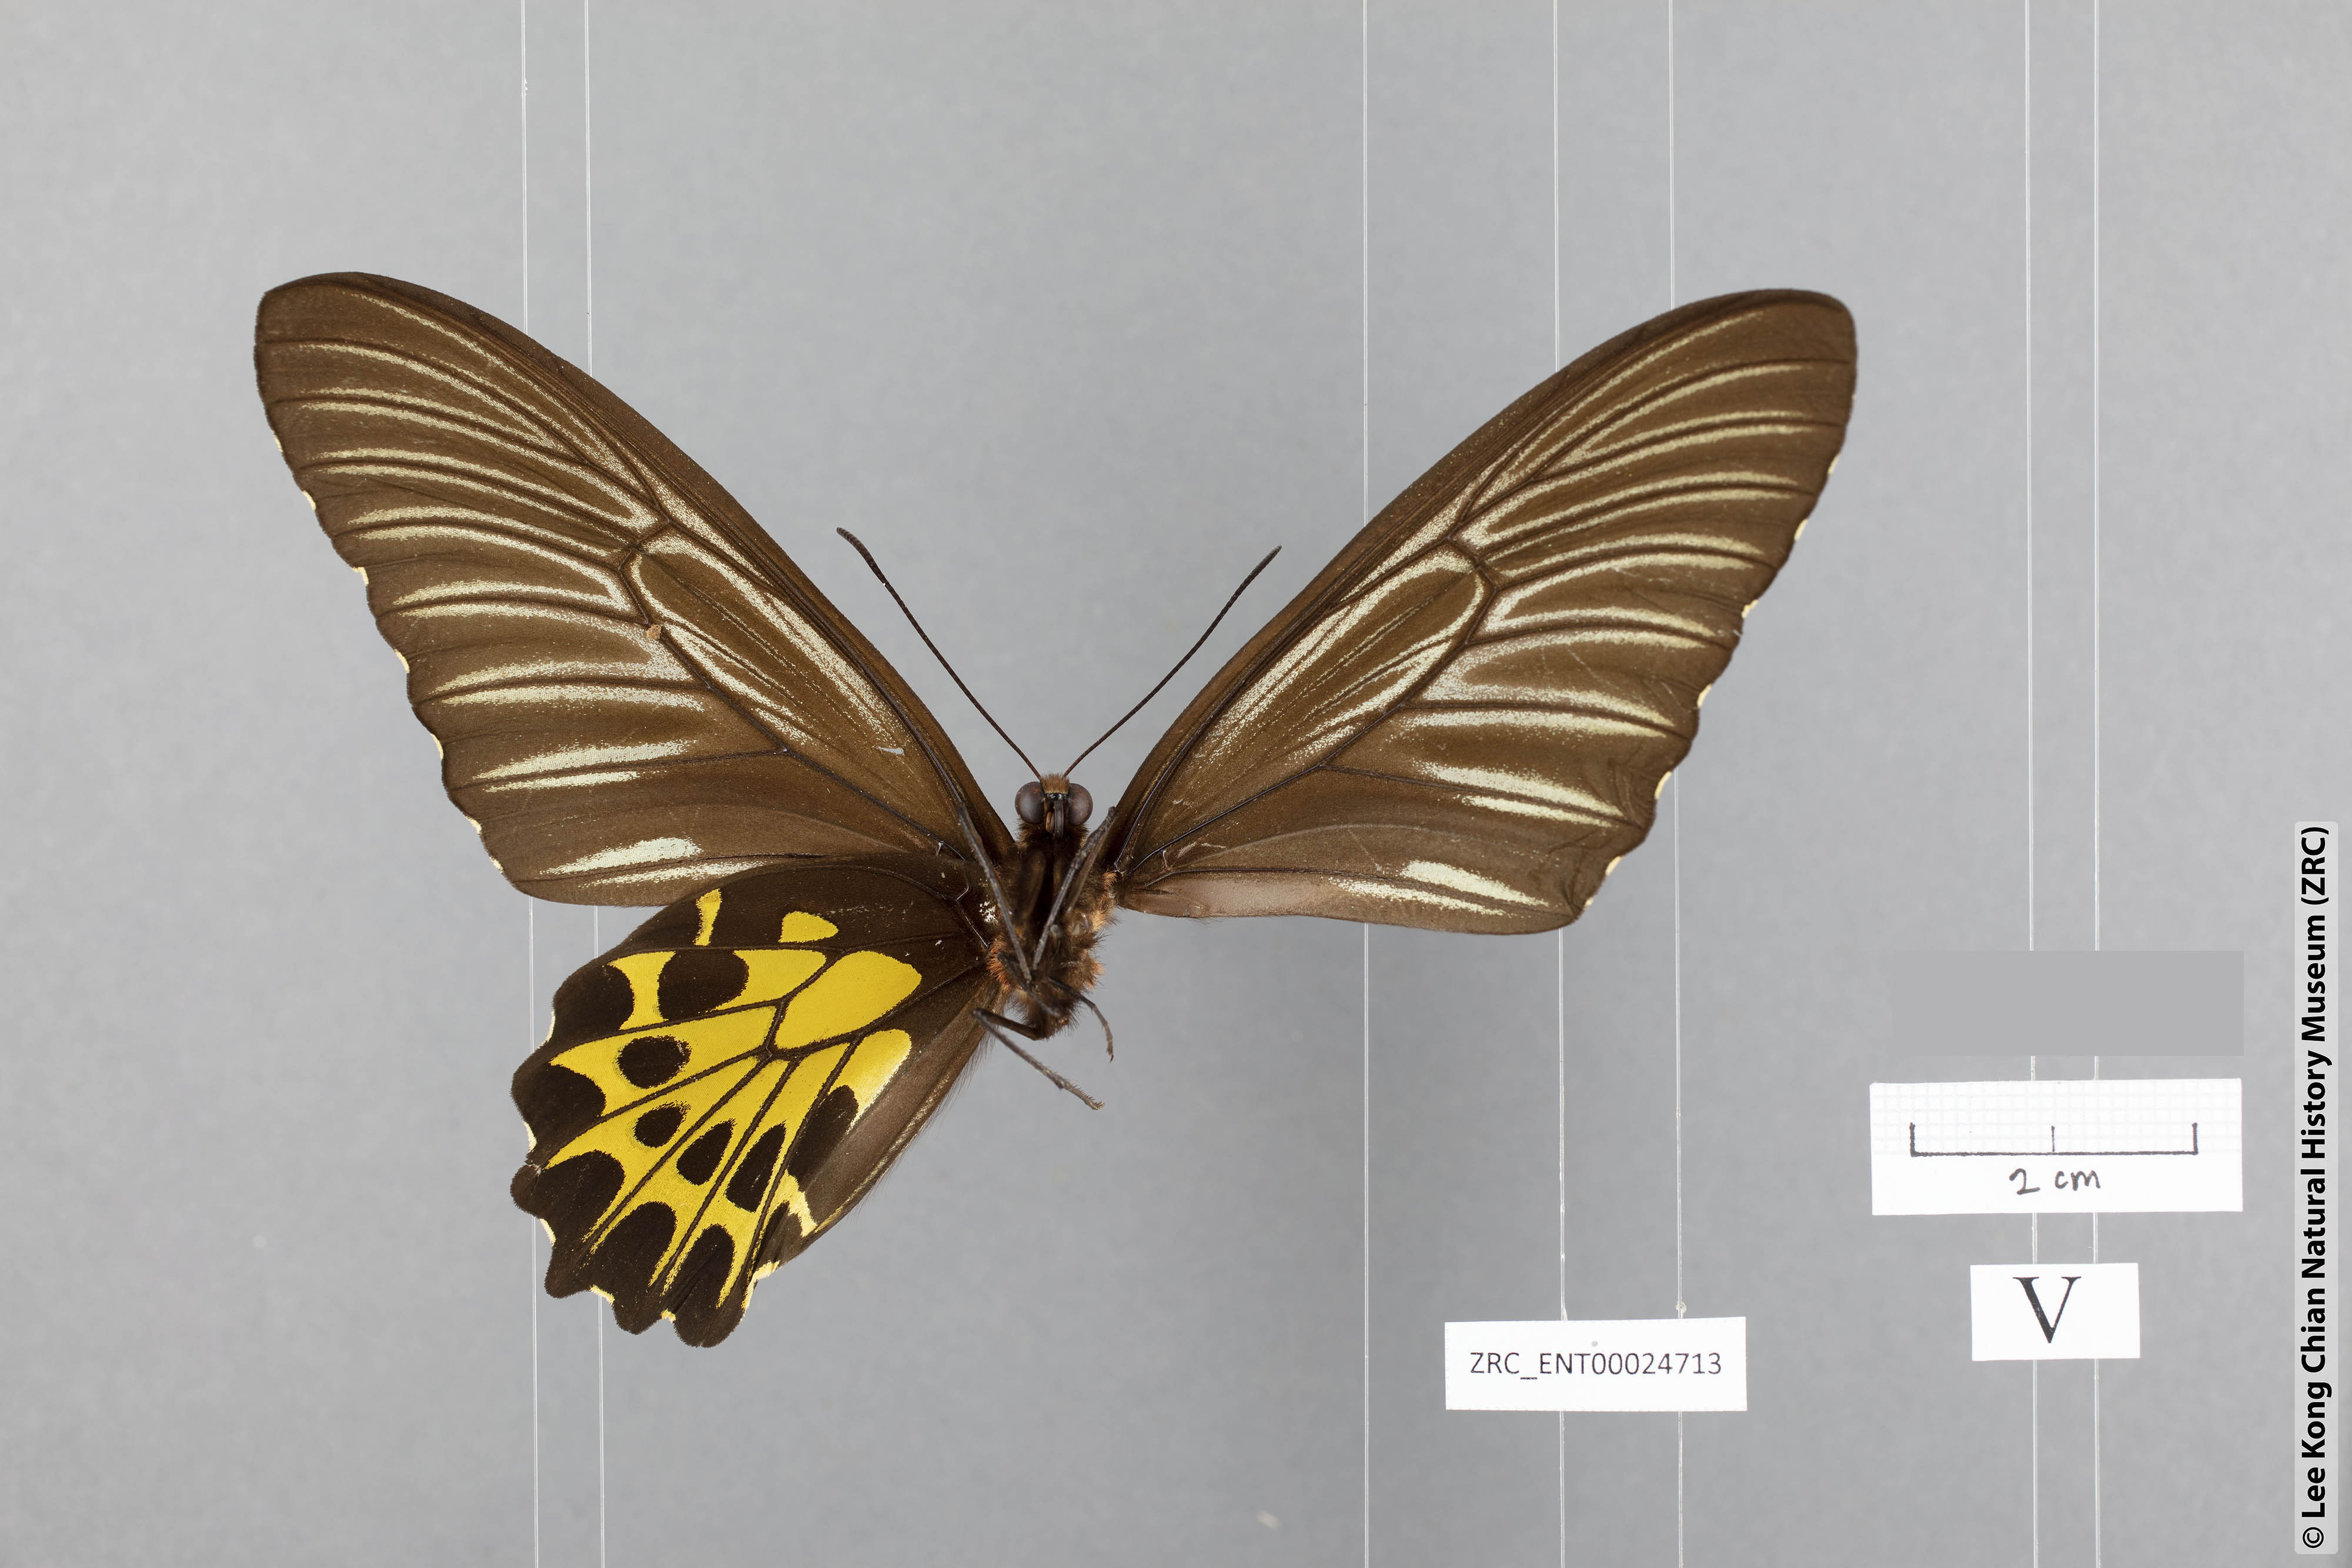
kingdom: Animalia
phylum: Arthropoda
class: Insecta
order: Lepidoptera
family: Papilionidae
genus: Troides
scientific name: Troides aeacus
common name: Golden birdwing
